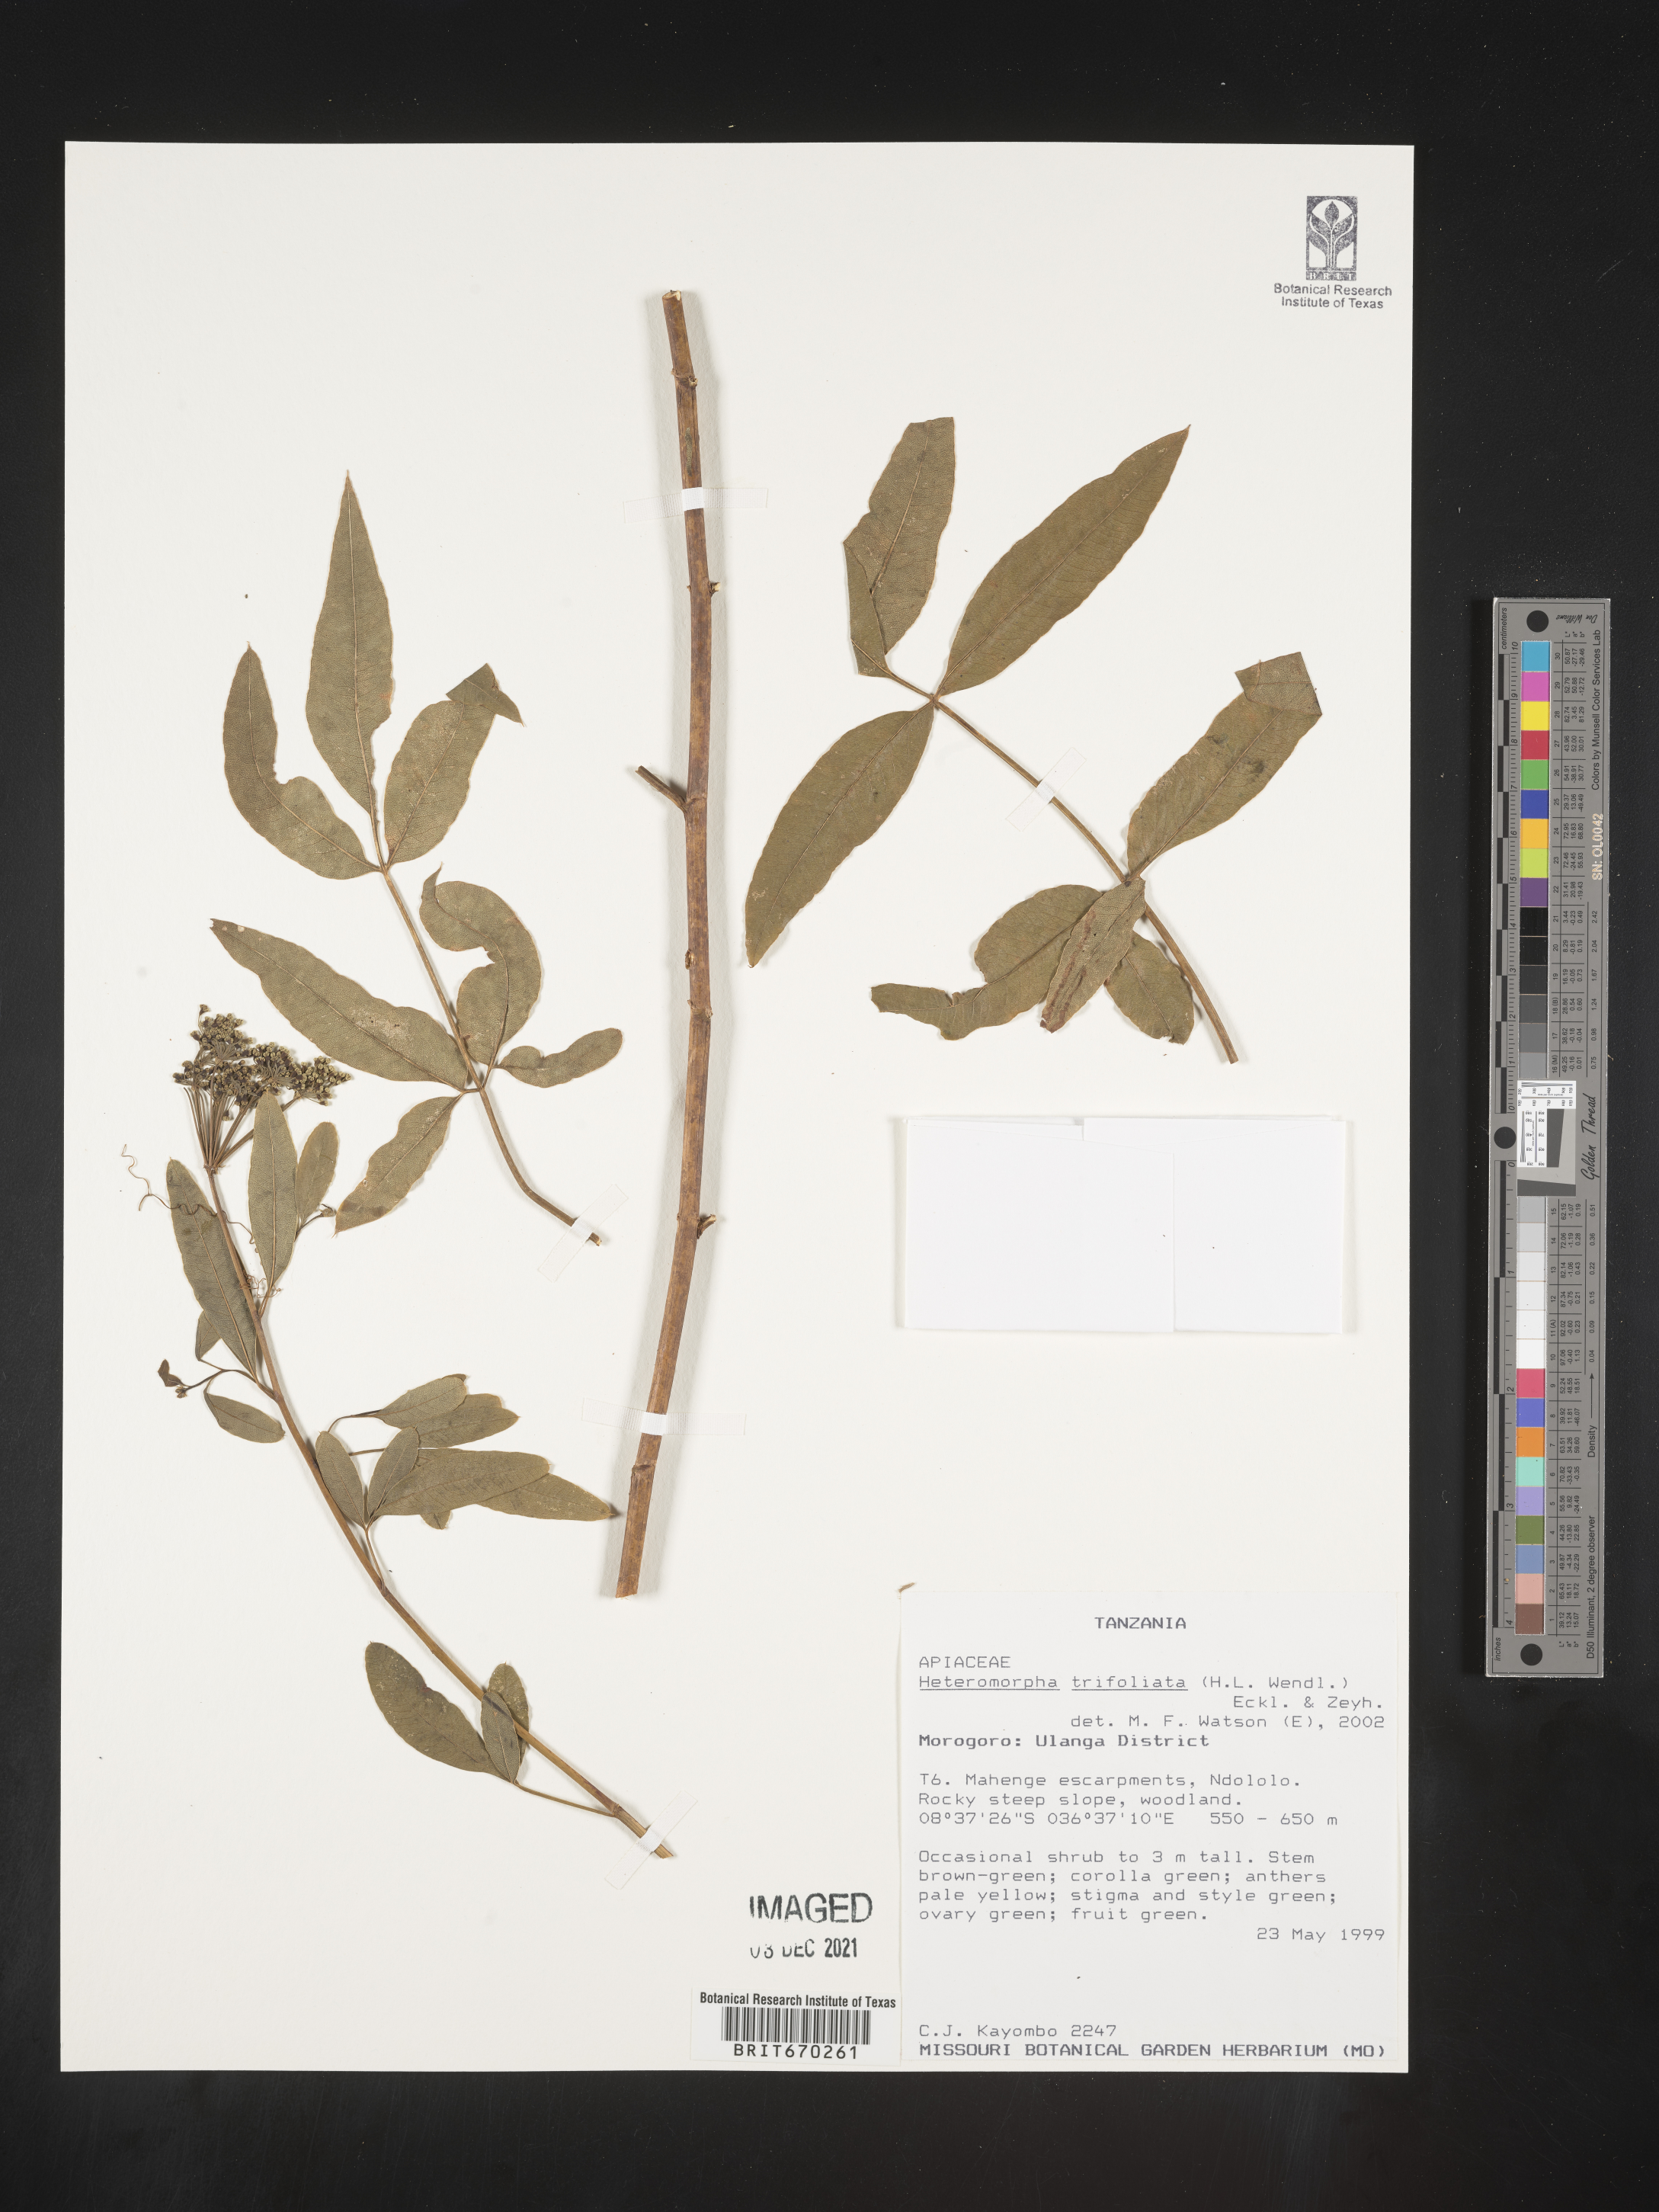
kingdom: Plantae
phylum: Tracheophyta
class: Magnoliopsida
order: Apiales
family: Apiaceae
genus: Heteromorpha
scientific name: Heteromorpha
